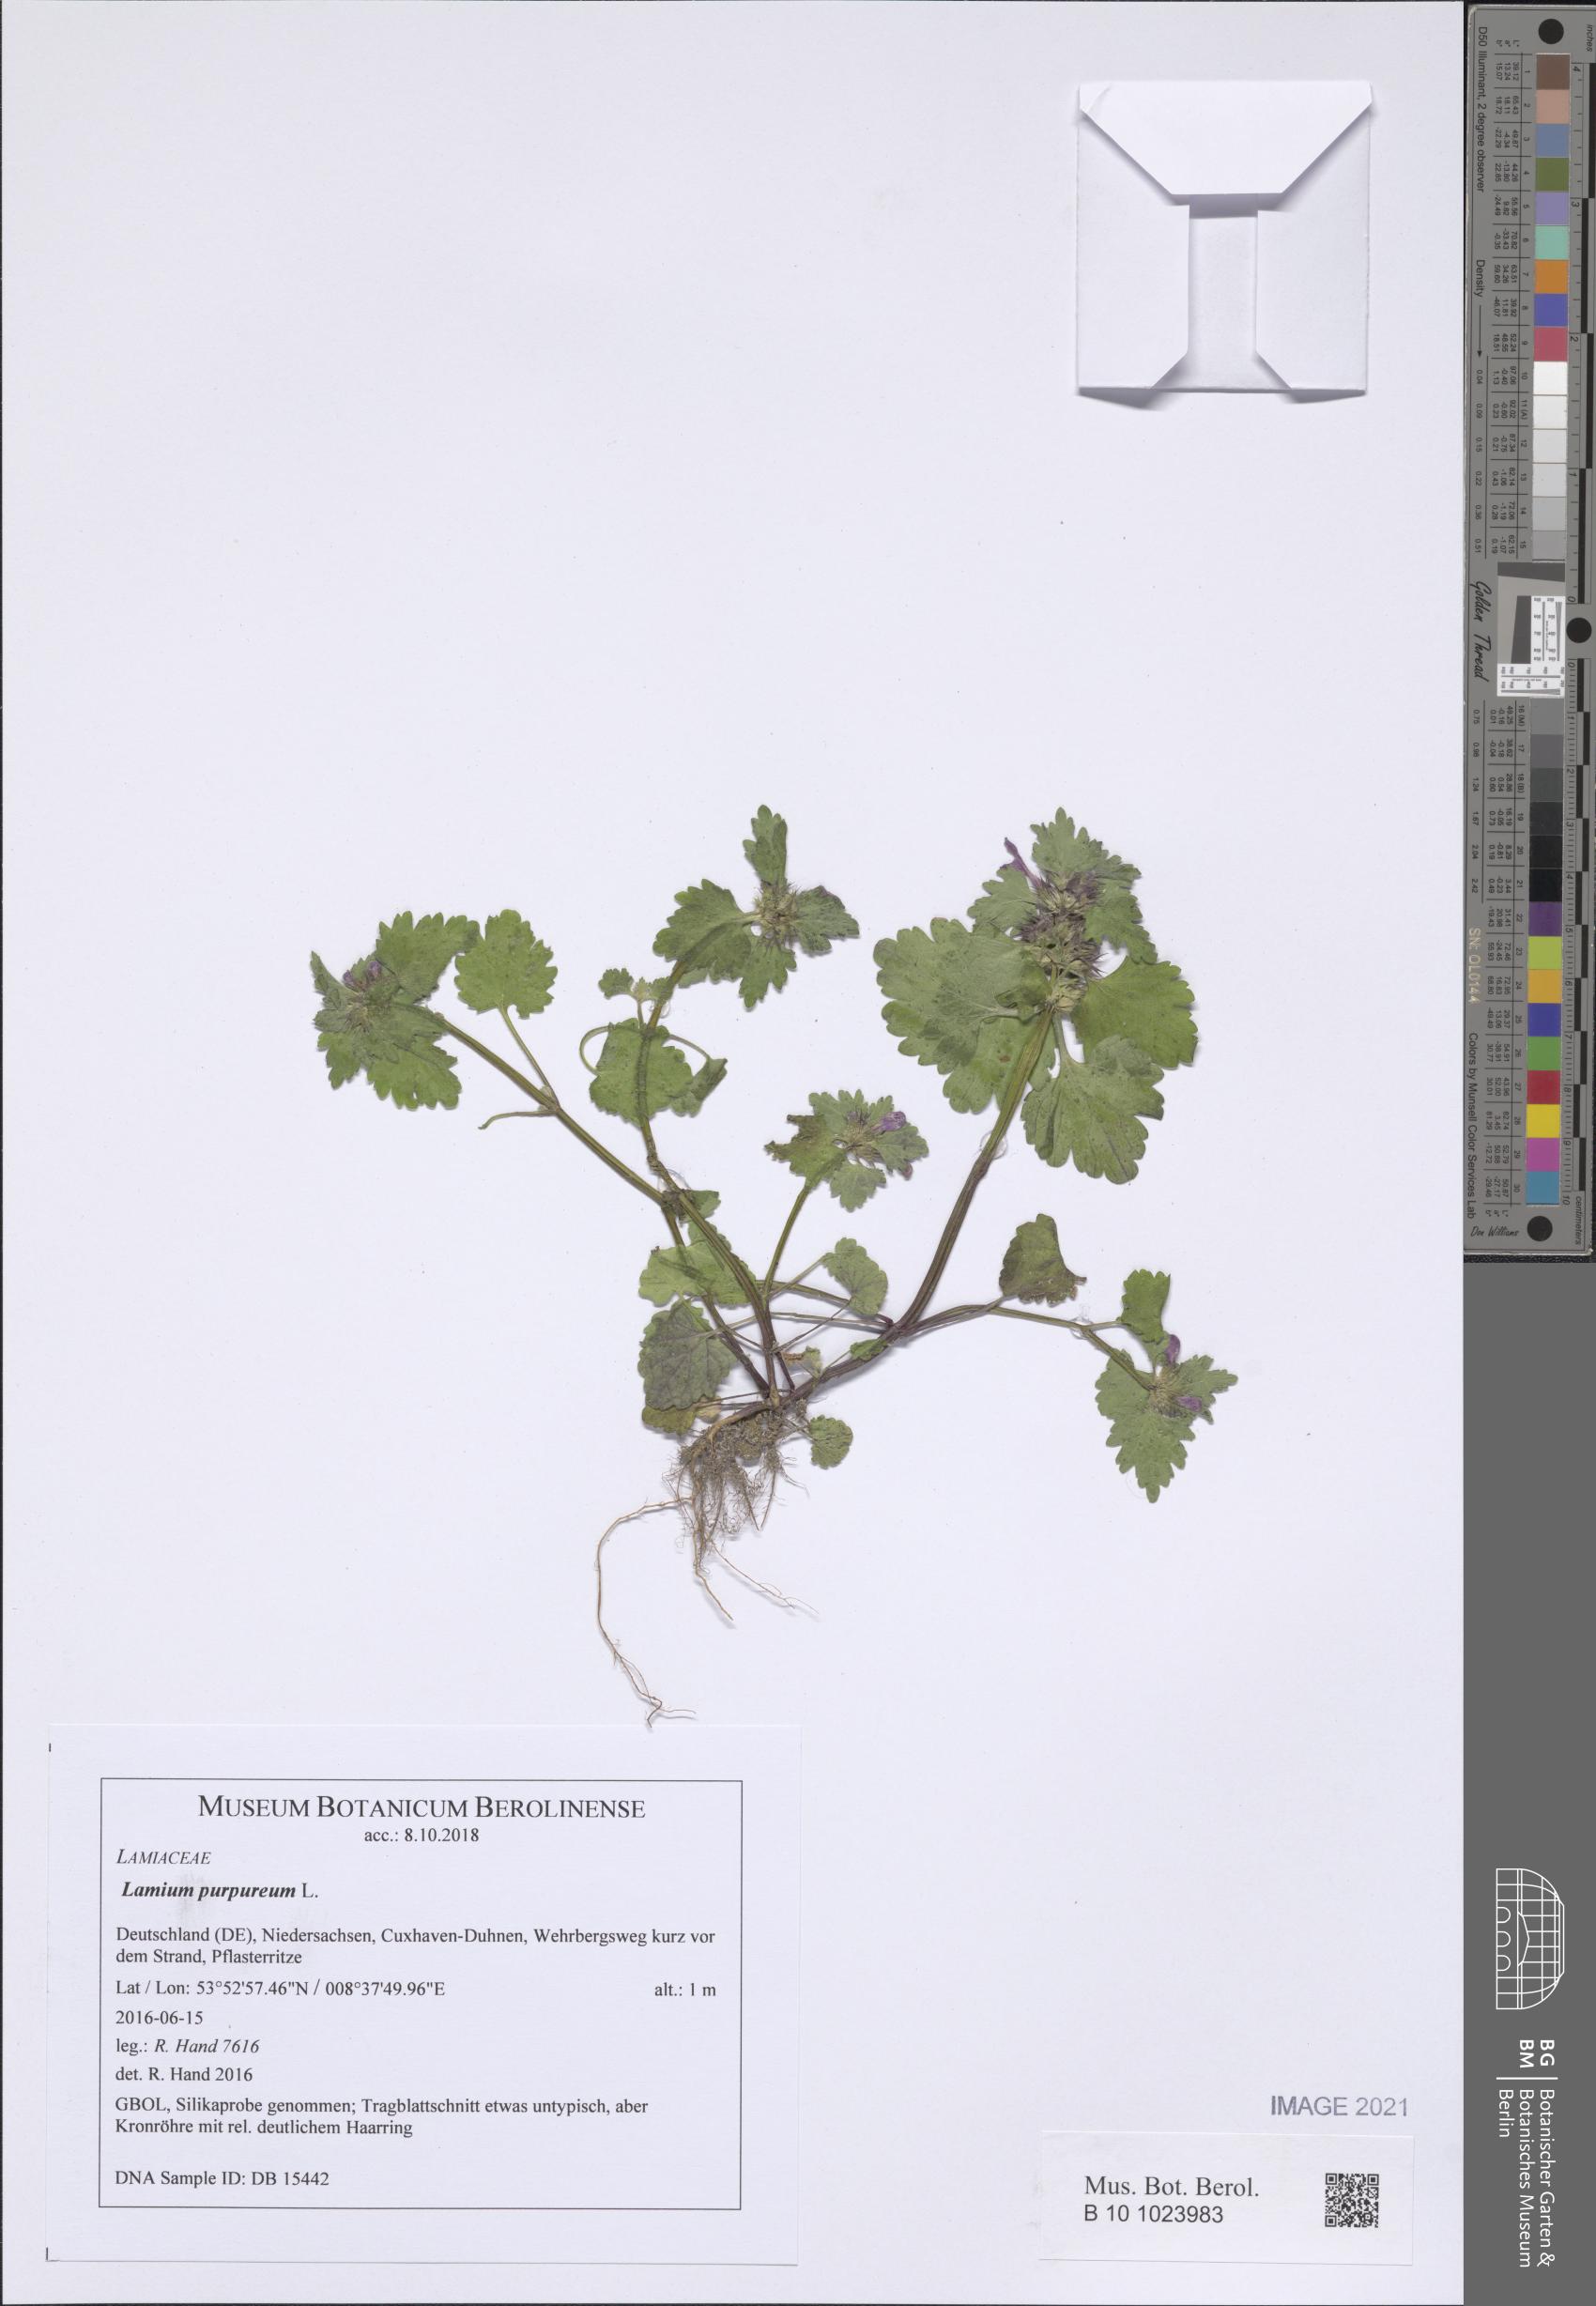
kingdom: Plantae
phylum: Tracheophyta
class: Magnoliopsida
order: Lamiales
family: Lamiaceae
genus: Lamium
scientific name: Lamium purpureum
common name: Red dead-nettle
